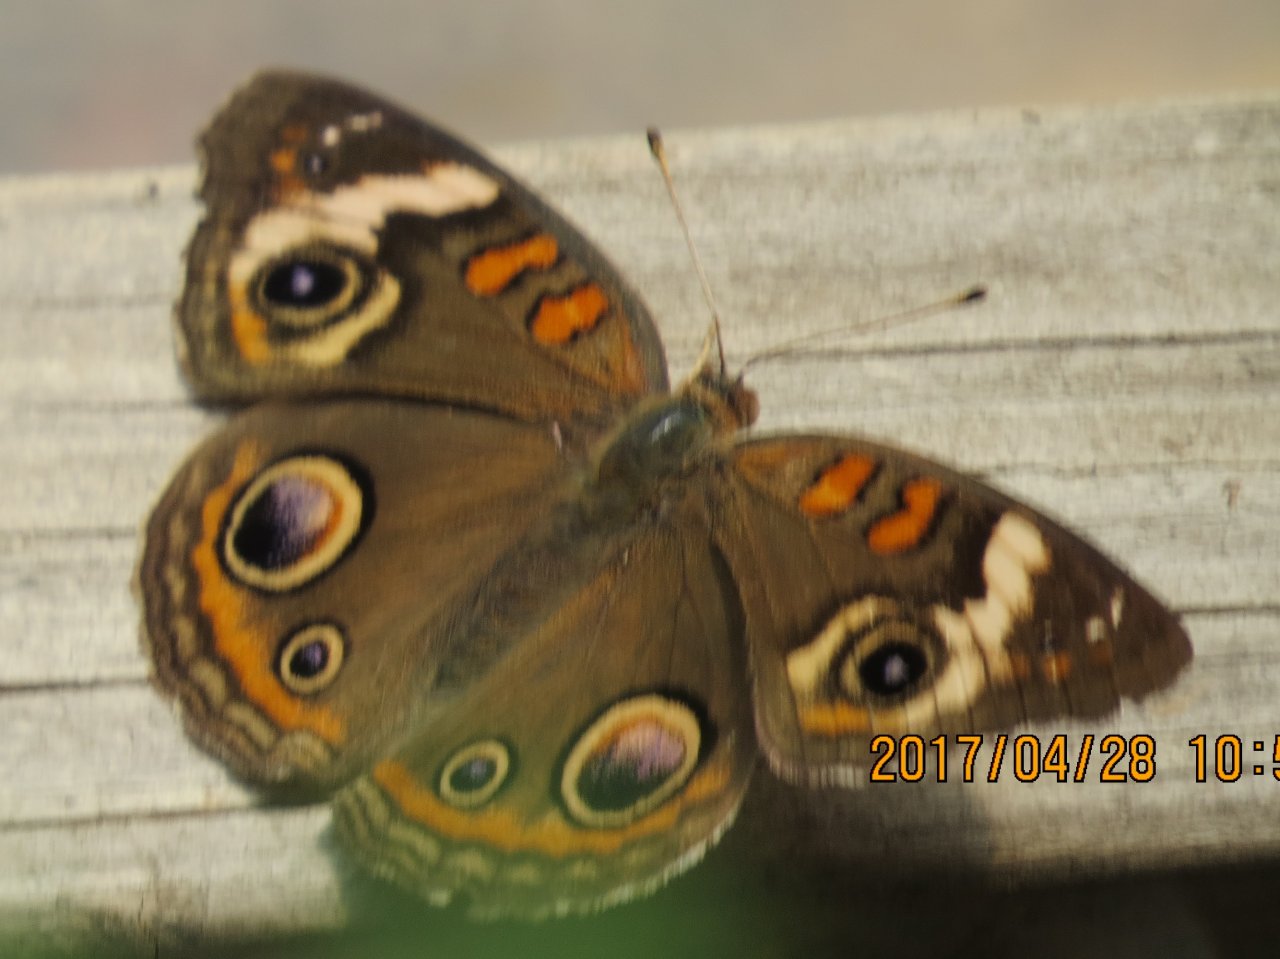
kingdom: Animalia
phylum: Arthropoda
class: Insecta
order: Lepidoptera
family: Nymphalidae
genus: Junonia
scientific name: Junonia coenia
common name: Common Buckeye
